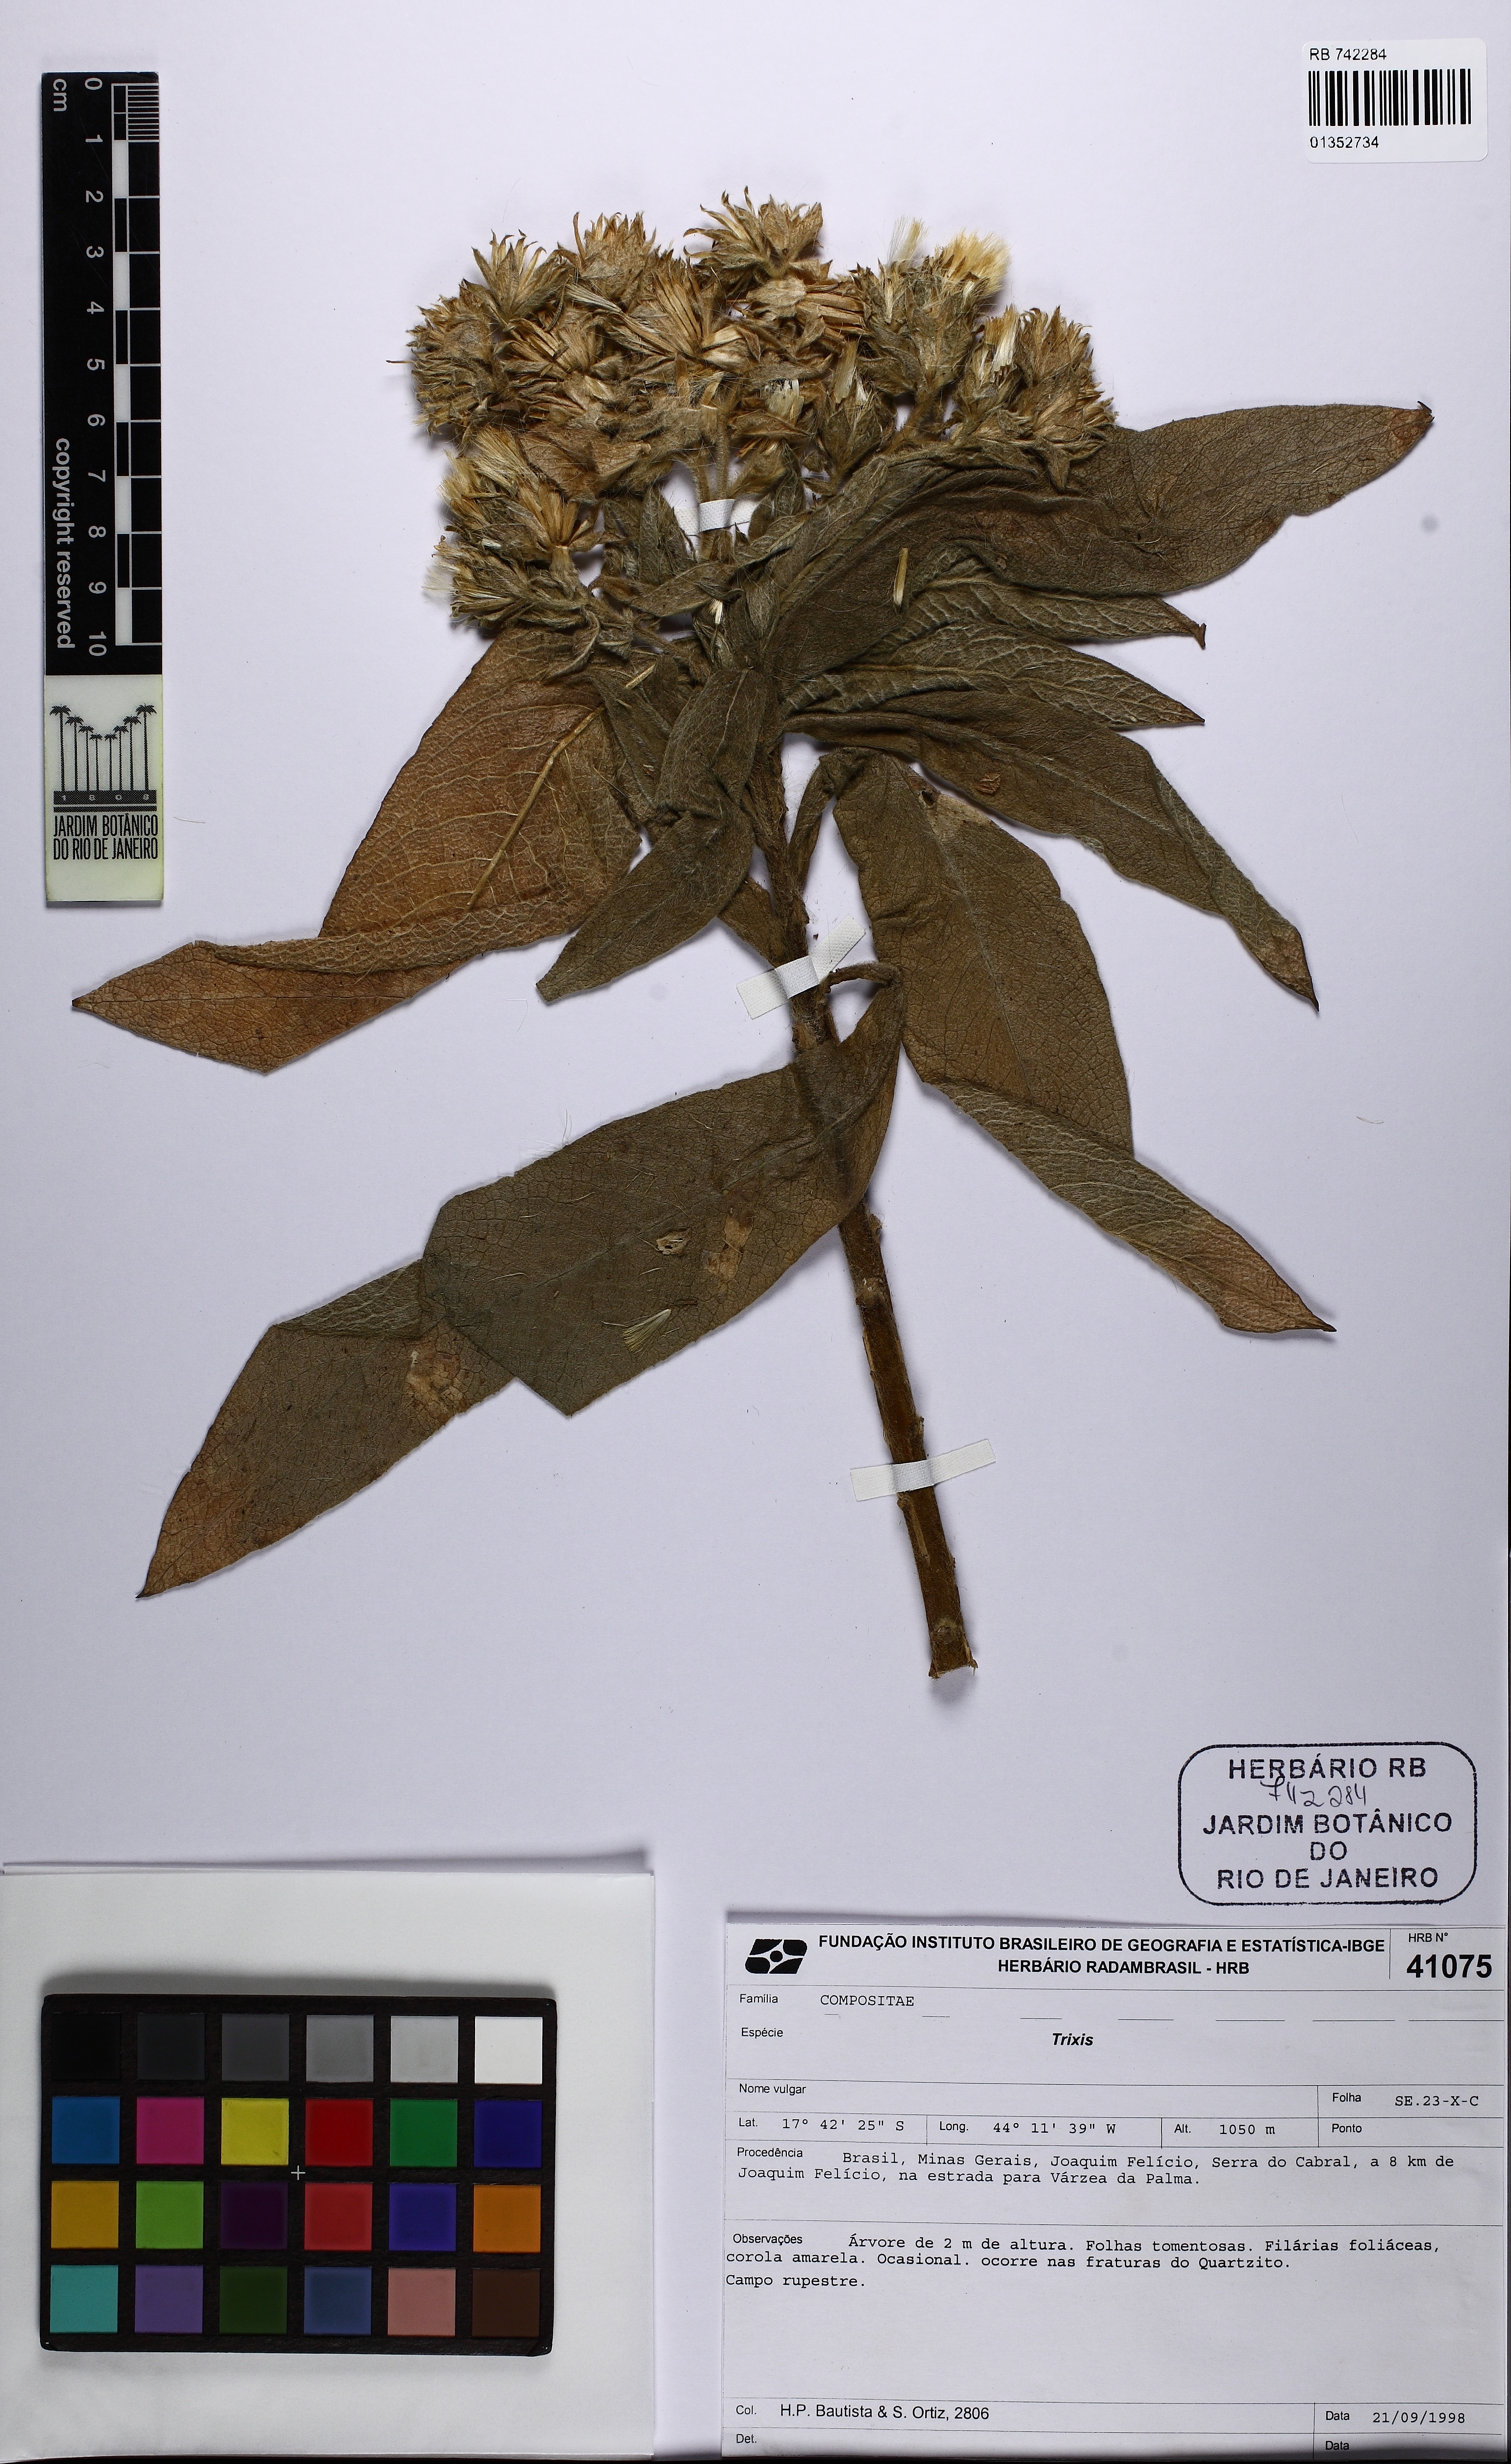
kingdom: Plantae
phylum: Tracheophyta
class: Magnoliopsida
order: Asterales
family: Asteraceae
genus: Trixis
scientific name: Trixis divaricata
